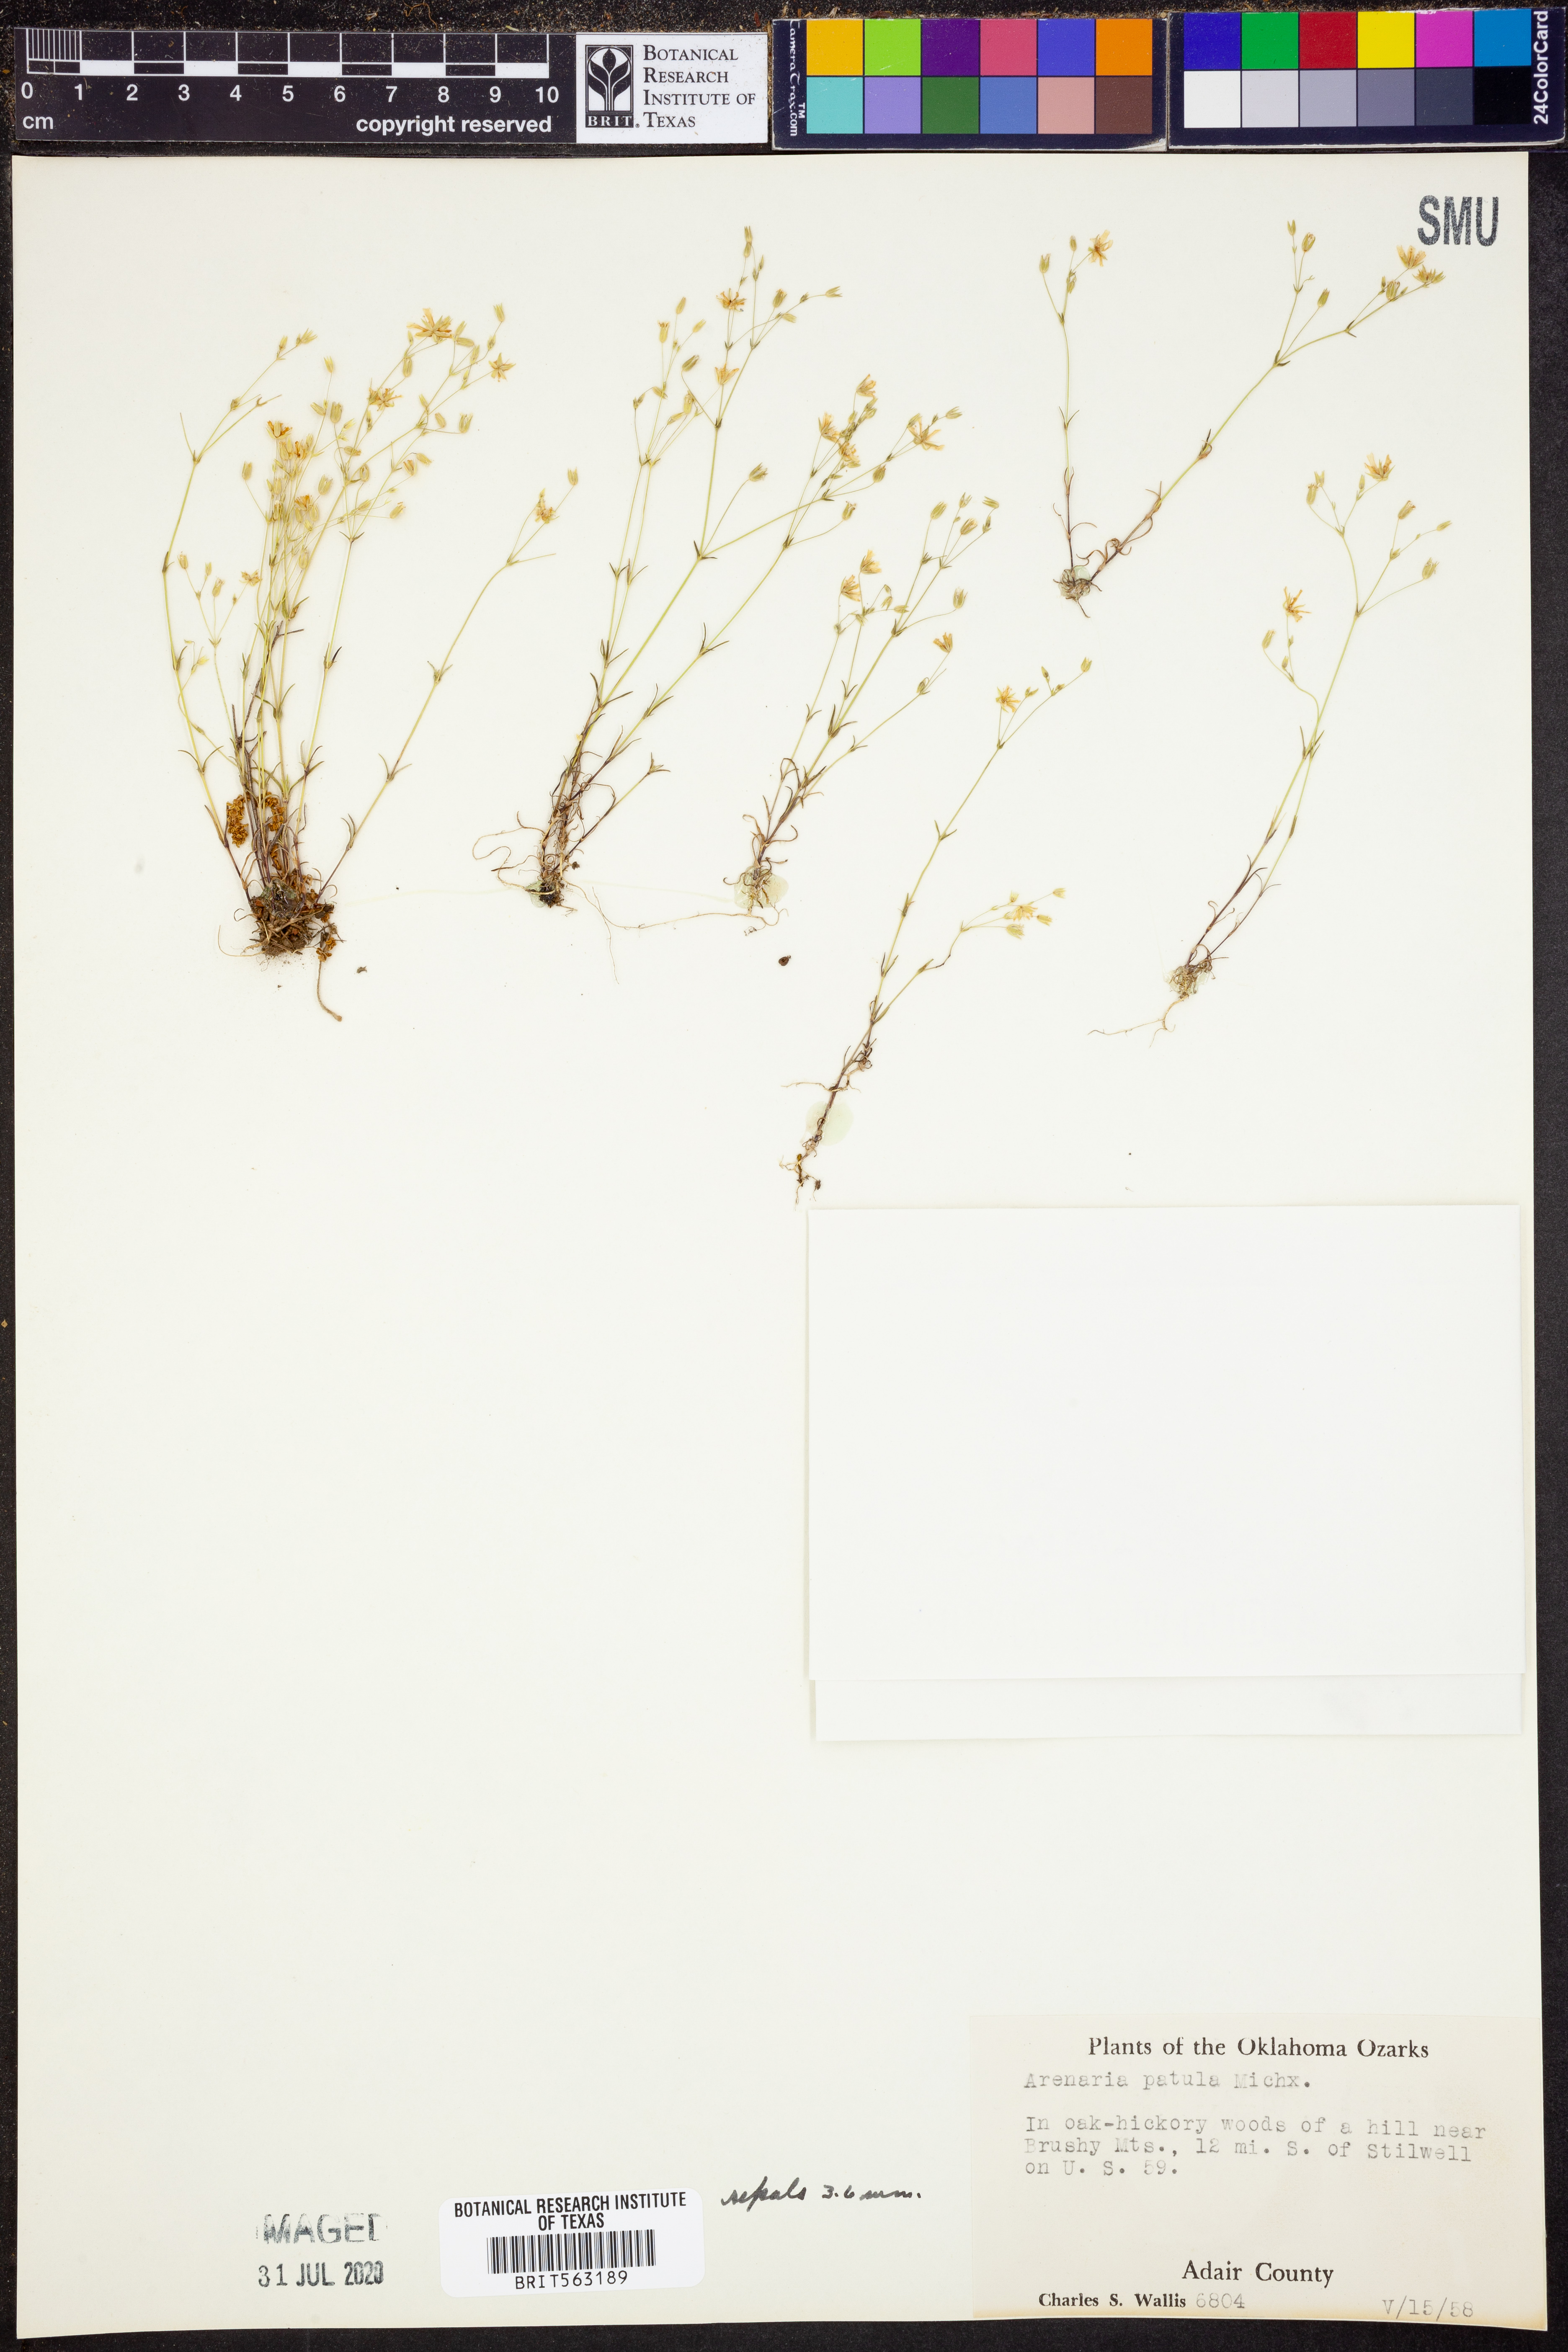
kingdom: Plantae
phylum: Tracheophyta
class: Magnoliopsida
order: Caryophyllales
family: Caryophyllaceae
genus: Mononeuria
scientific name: Mononeuria patula
